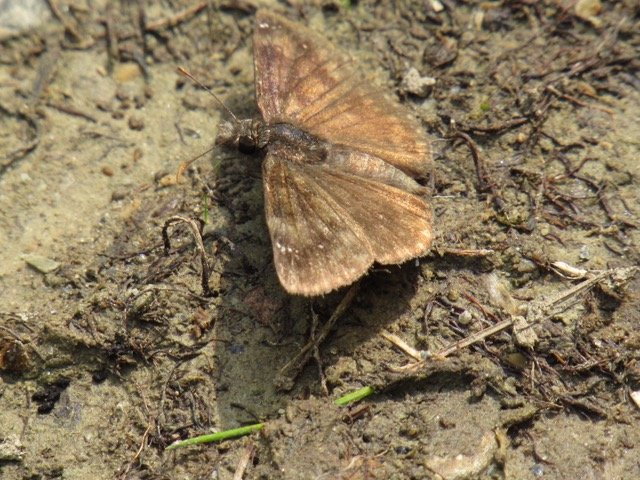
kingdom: Animalia
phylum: Arthropoda
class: Insecta
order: Lepidoptera
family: Hesperiidae
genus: Gesta
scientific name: Gesta
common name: Wild Indigo Duskywing
